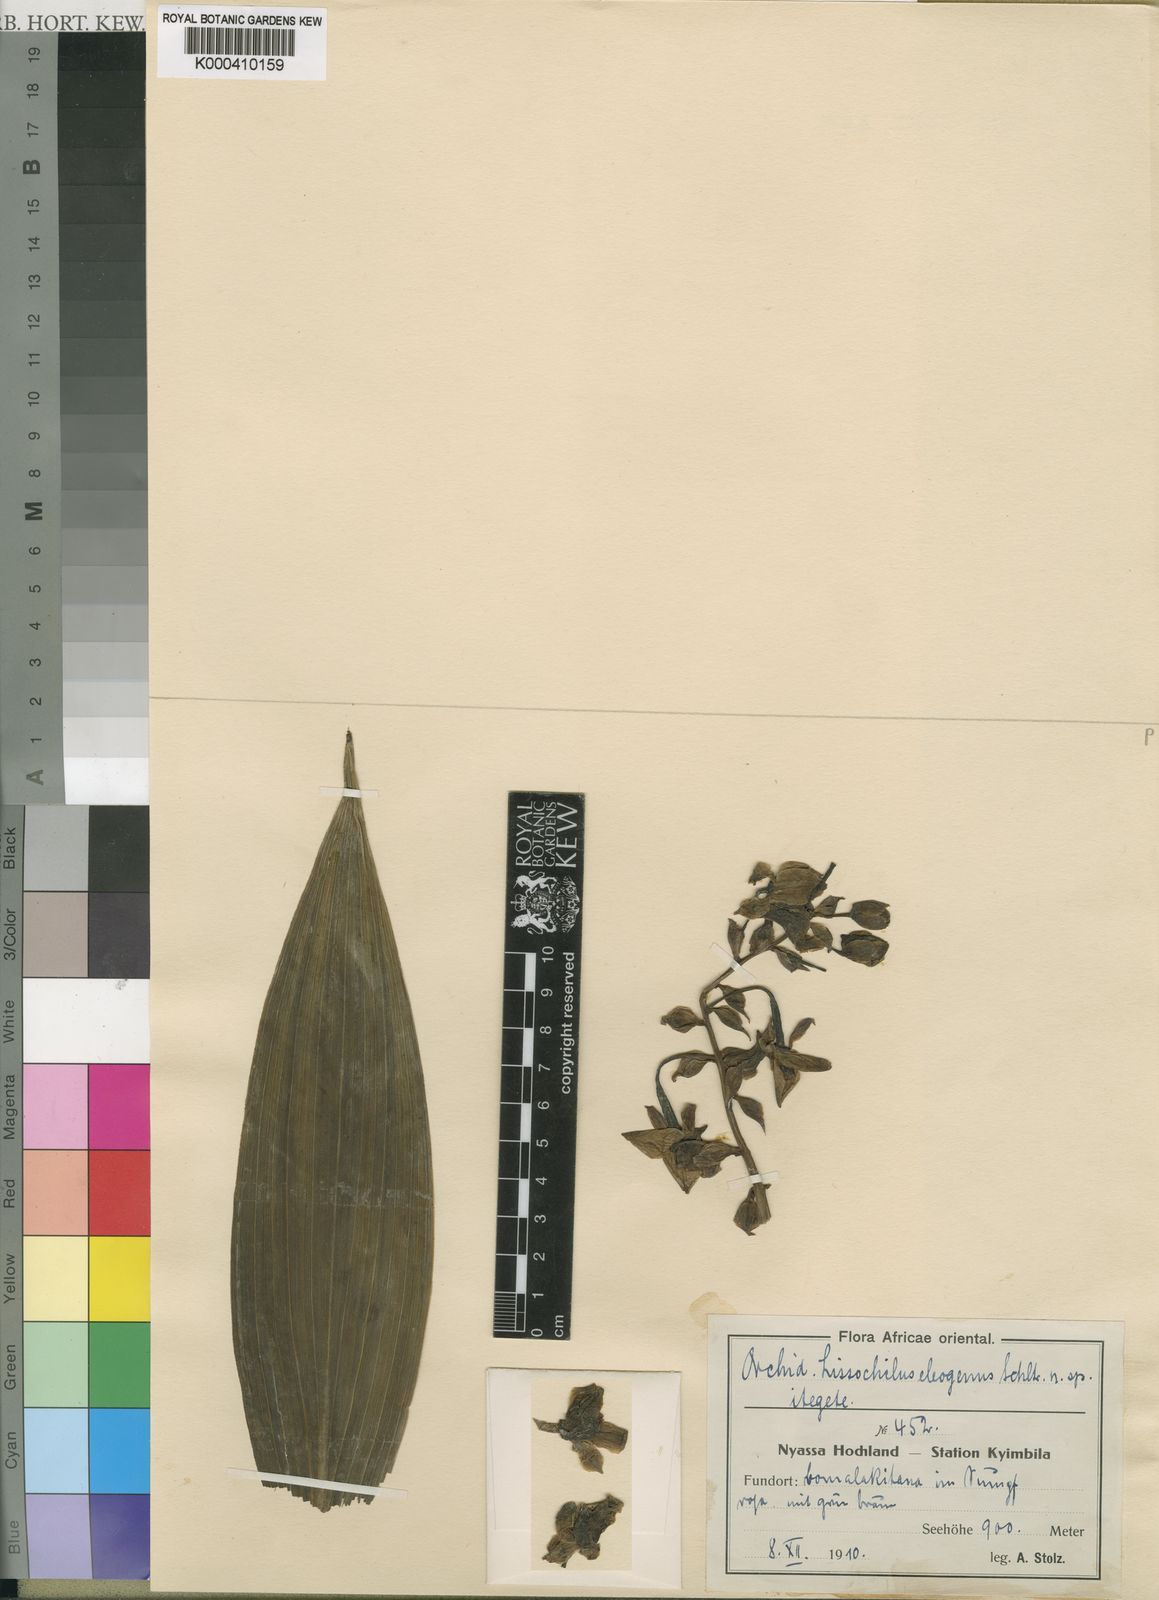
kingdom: Plantae
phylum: Tracheophyta
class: Liliopsida
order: Asparagales
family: Orchidaceae
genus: Eulophia
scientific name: Eulophia horsfallii
